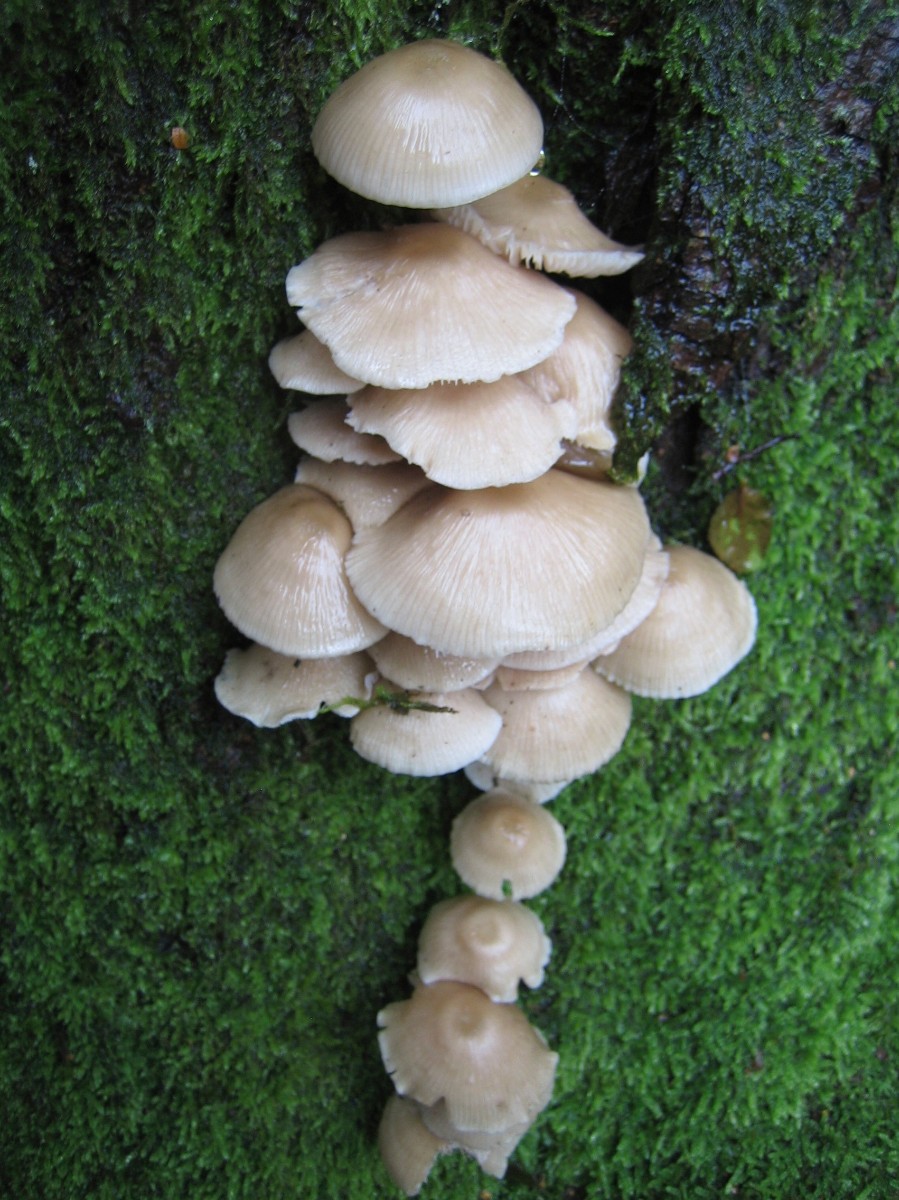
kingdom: Fungi
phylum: Basidiomycota
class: Agaricomycetes
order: Agaricales
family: Mycenaceae
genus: Mycena
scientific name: Mycena galericulata
